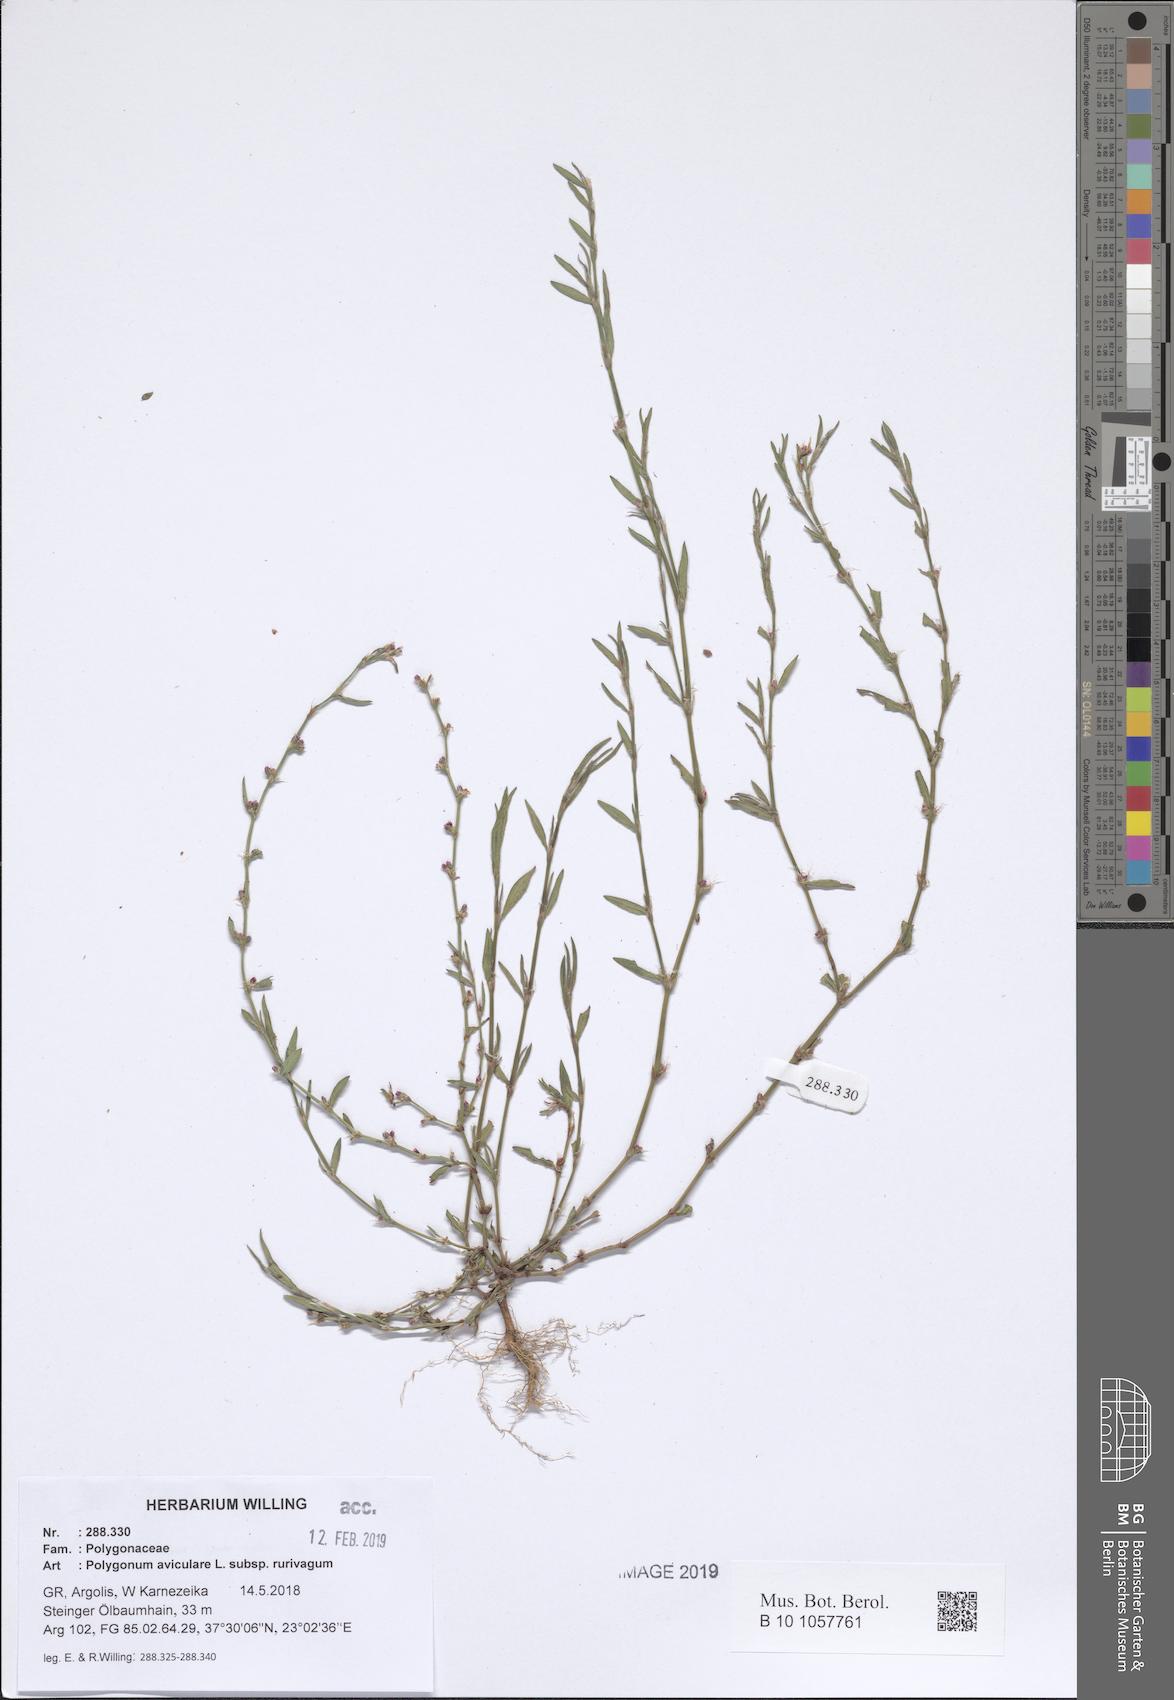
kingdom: Plantae
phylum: Tracheophyta
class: Magnoliopsida
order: Caryophyllales
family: Polygonaceae
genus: Polygonum
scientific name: Polygonum aviculare
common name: Prostrate knotweed
